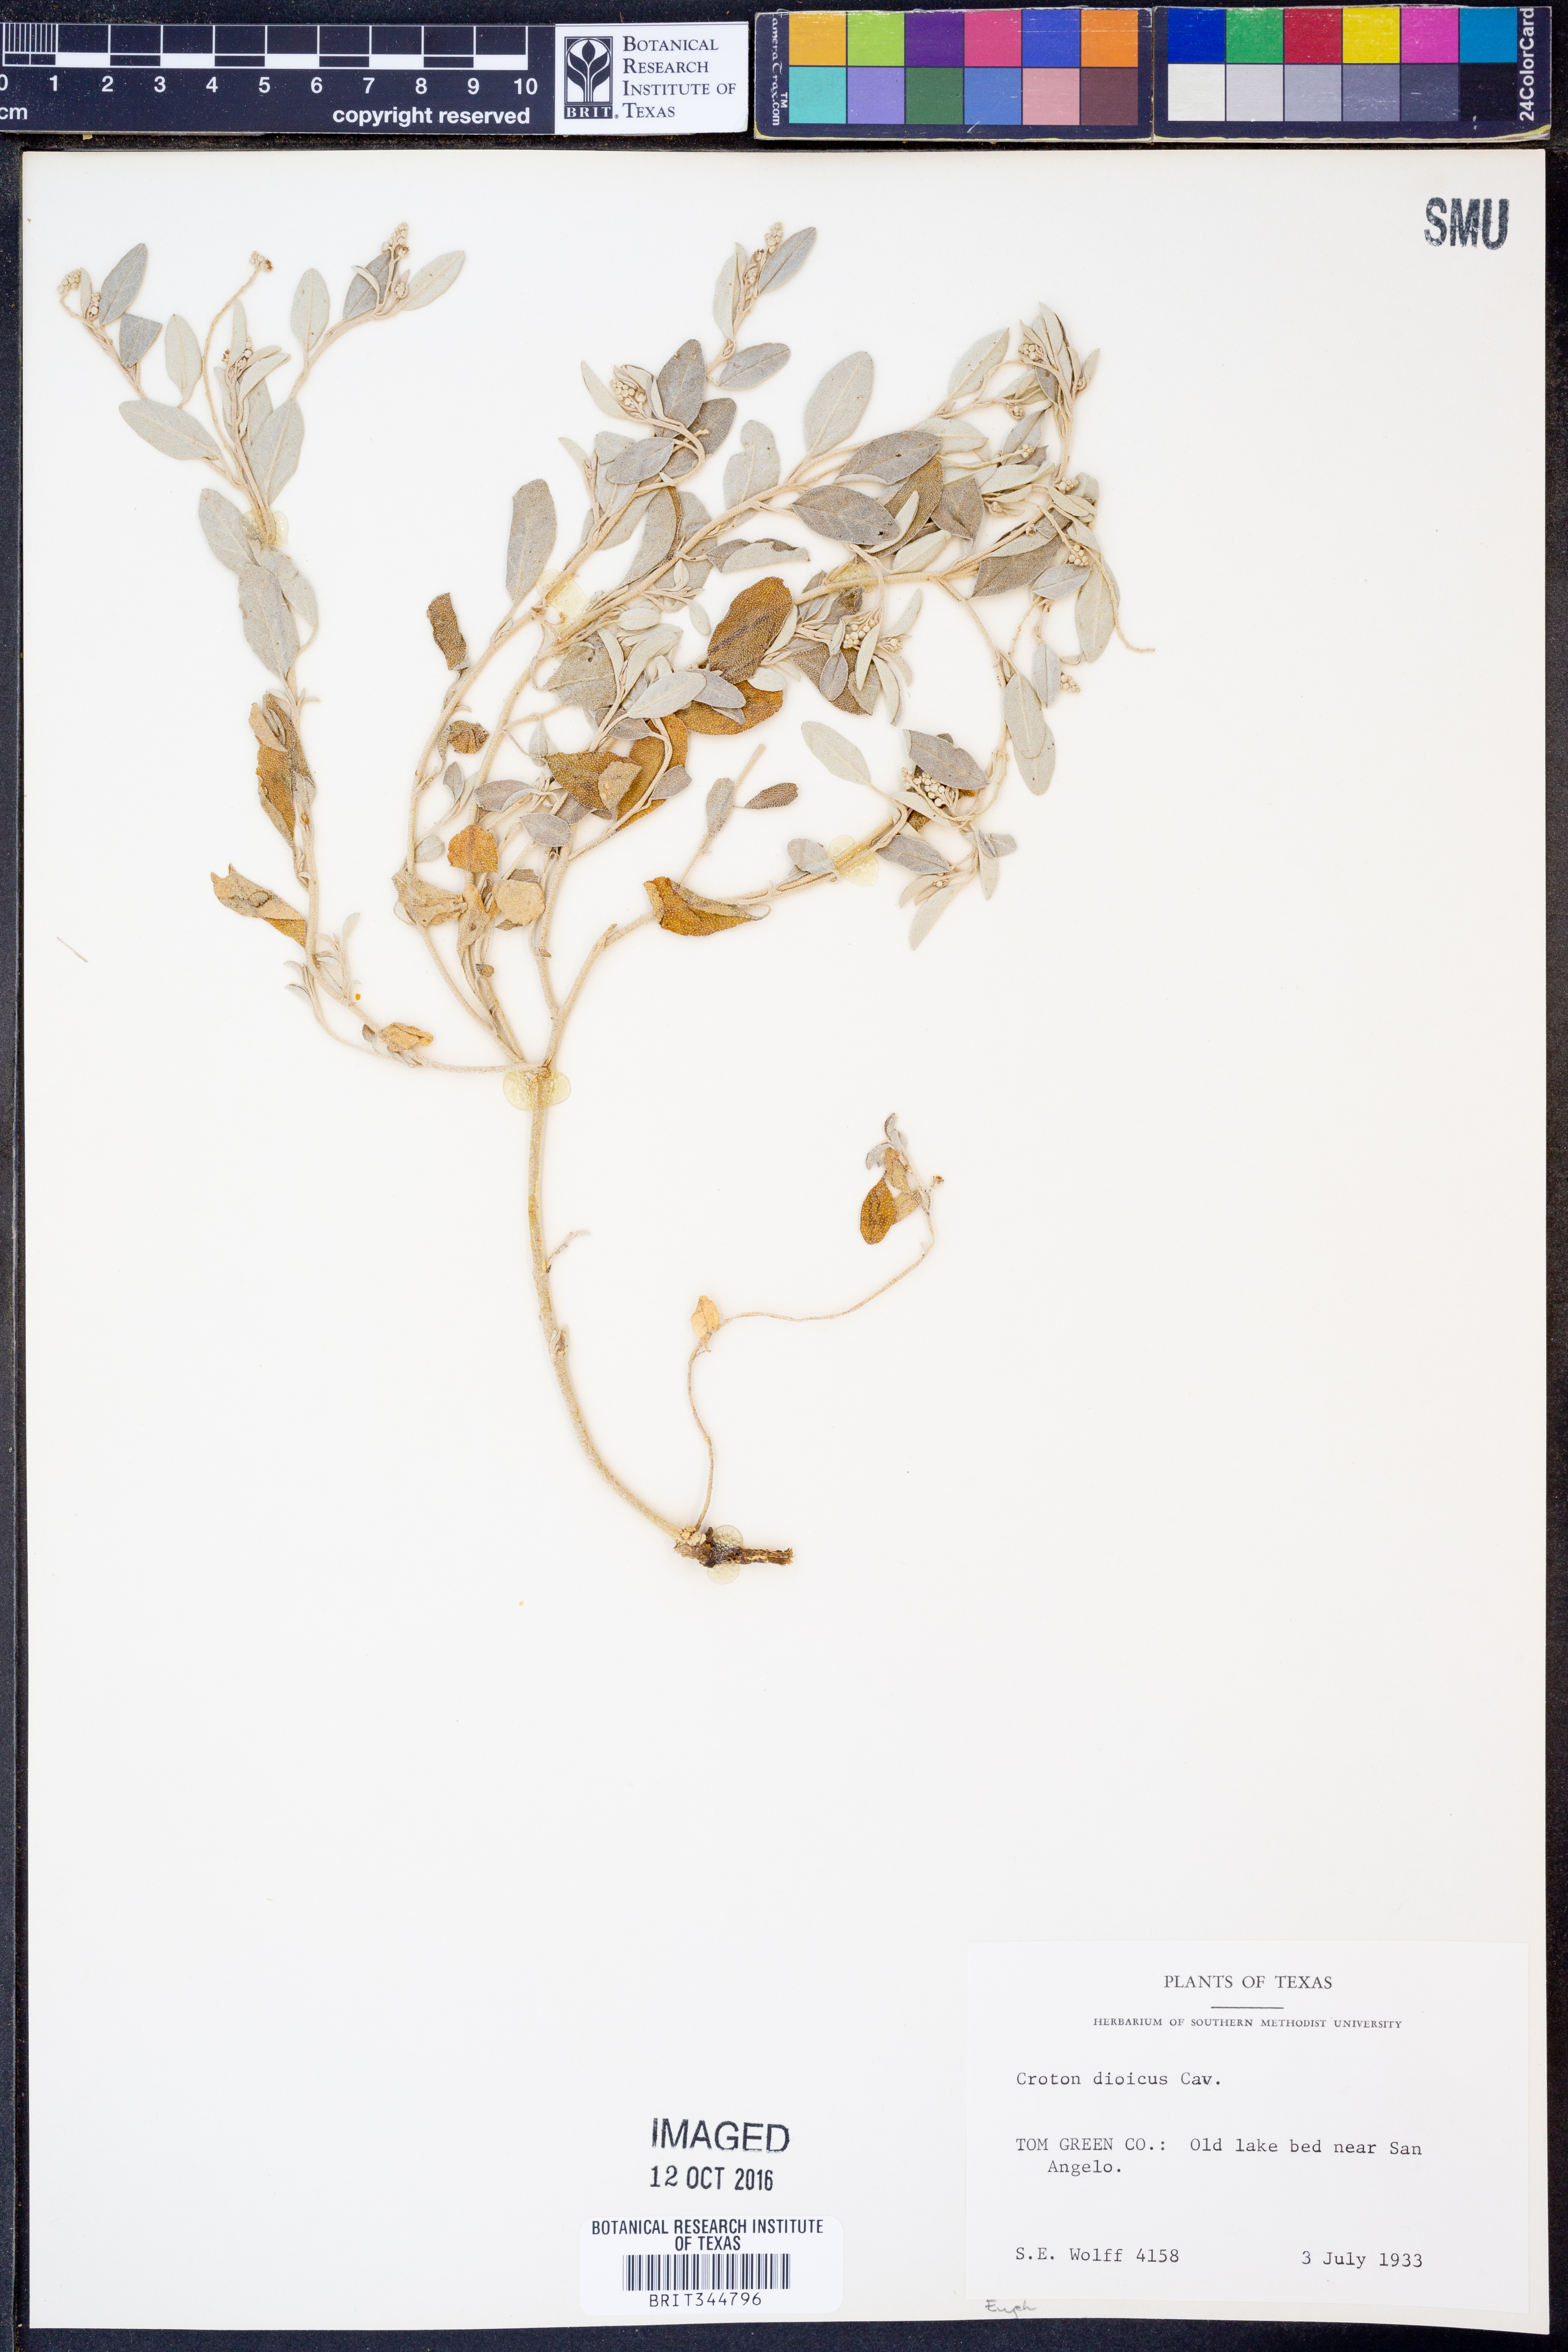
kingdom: Plantae
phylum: Tracheophyta
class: Magnoliopsida
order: Malpighiales
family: Euphorbiaceae
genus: Croton
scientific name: Croton dioicus
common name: Grassland croton
